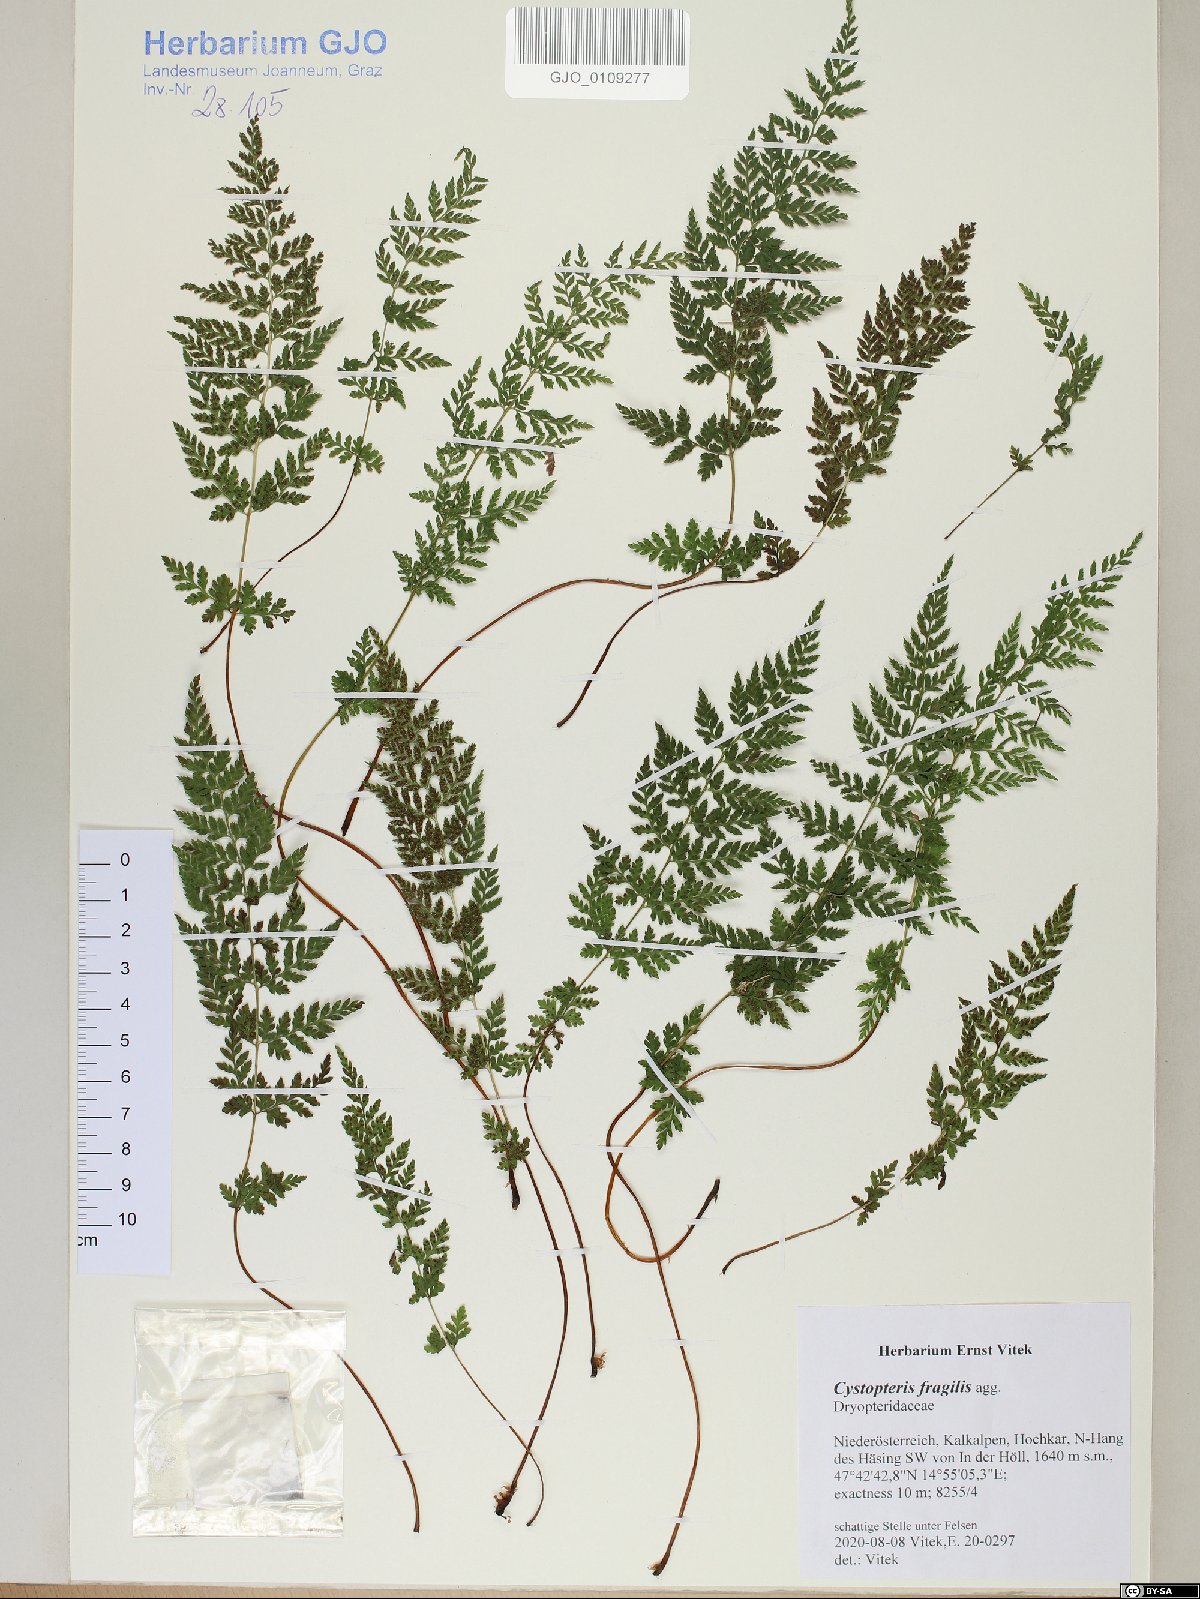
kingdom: Plantae
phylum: Tracheophyta
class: Polypodiopsida
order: Polypodiales
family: Cystopteridaceae
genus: Cystopteris
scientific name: Cystopteris fragilis
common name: Brittle bladder fern
